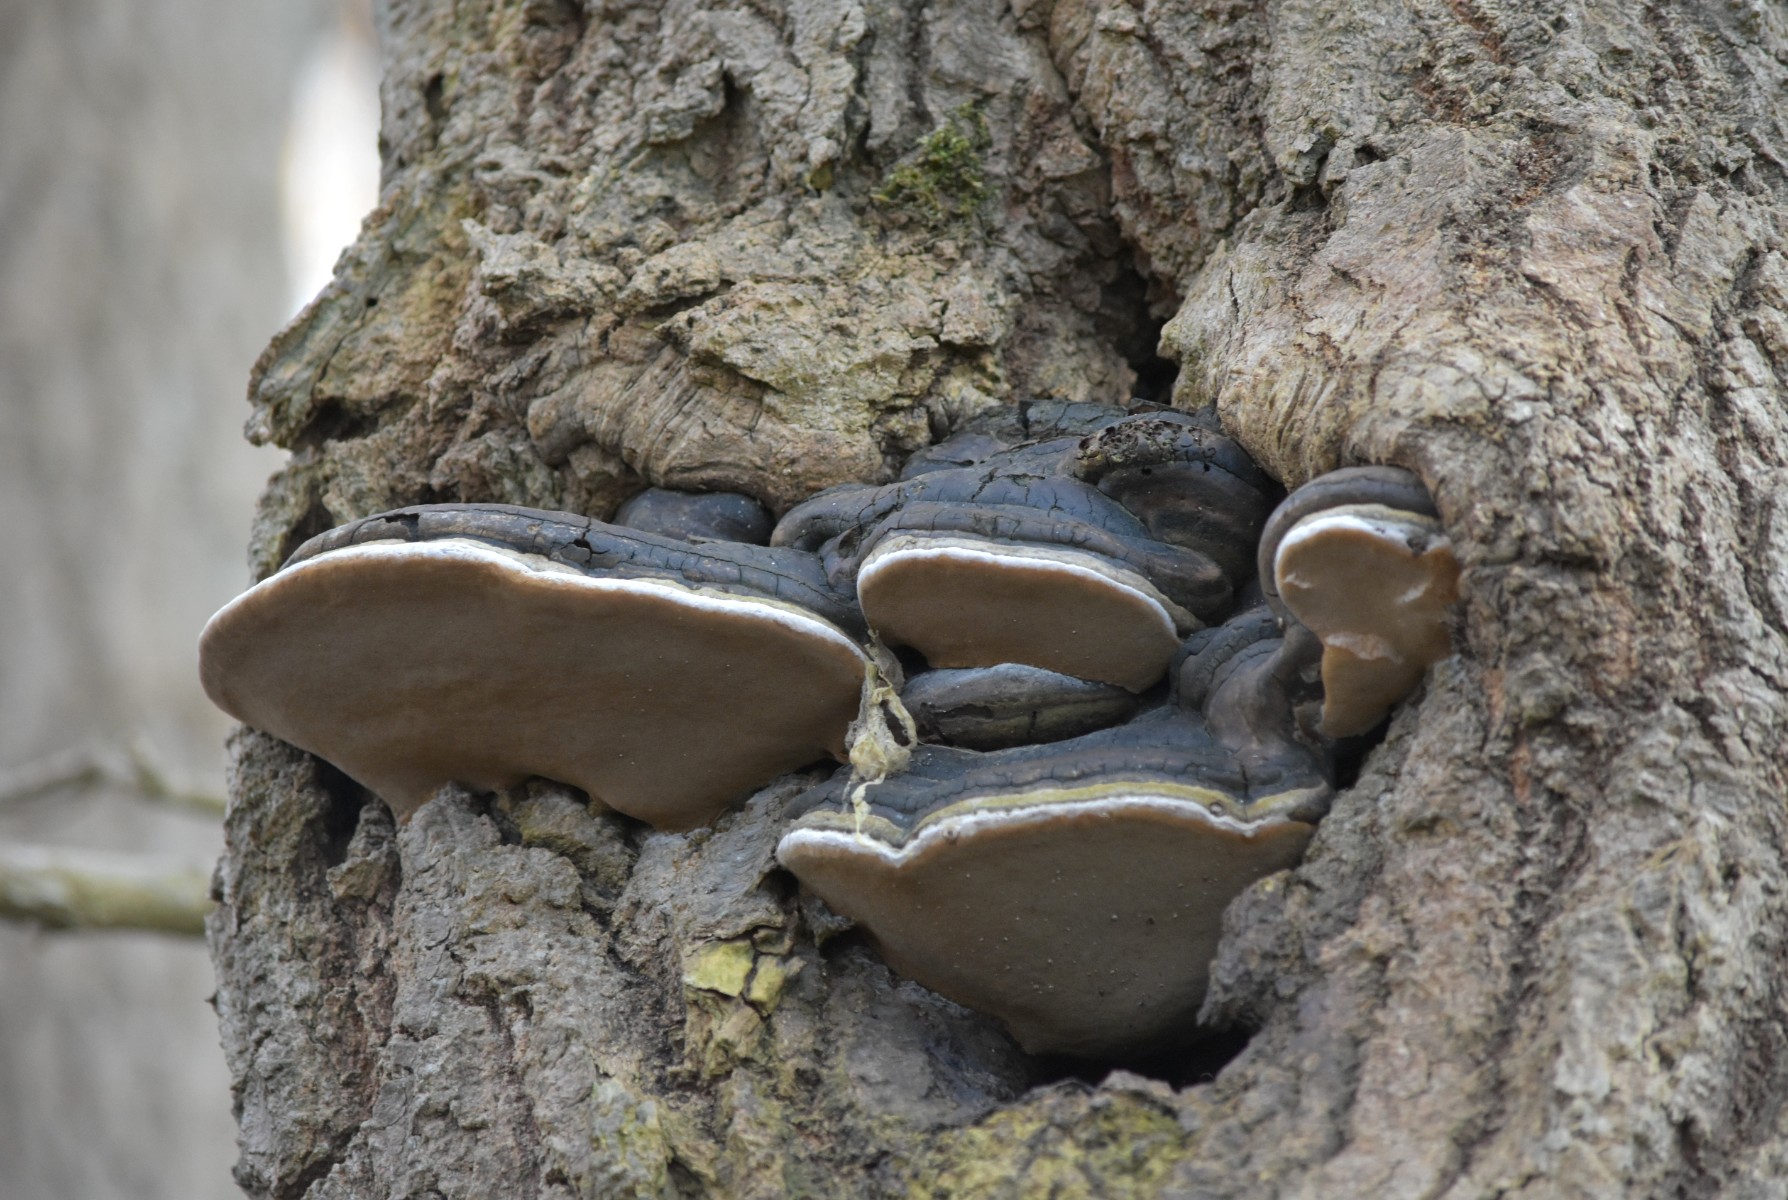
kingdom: Fungi
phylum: Basidiomycota
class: Agaricomycetes
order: Hymenochaetales
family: Hymenochaetaceae
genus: Phellinus
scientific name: Phellinus igniarius
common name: almindelig ildporesvamp
